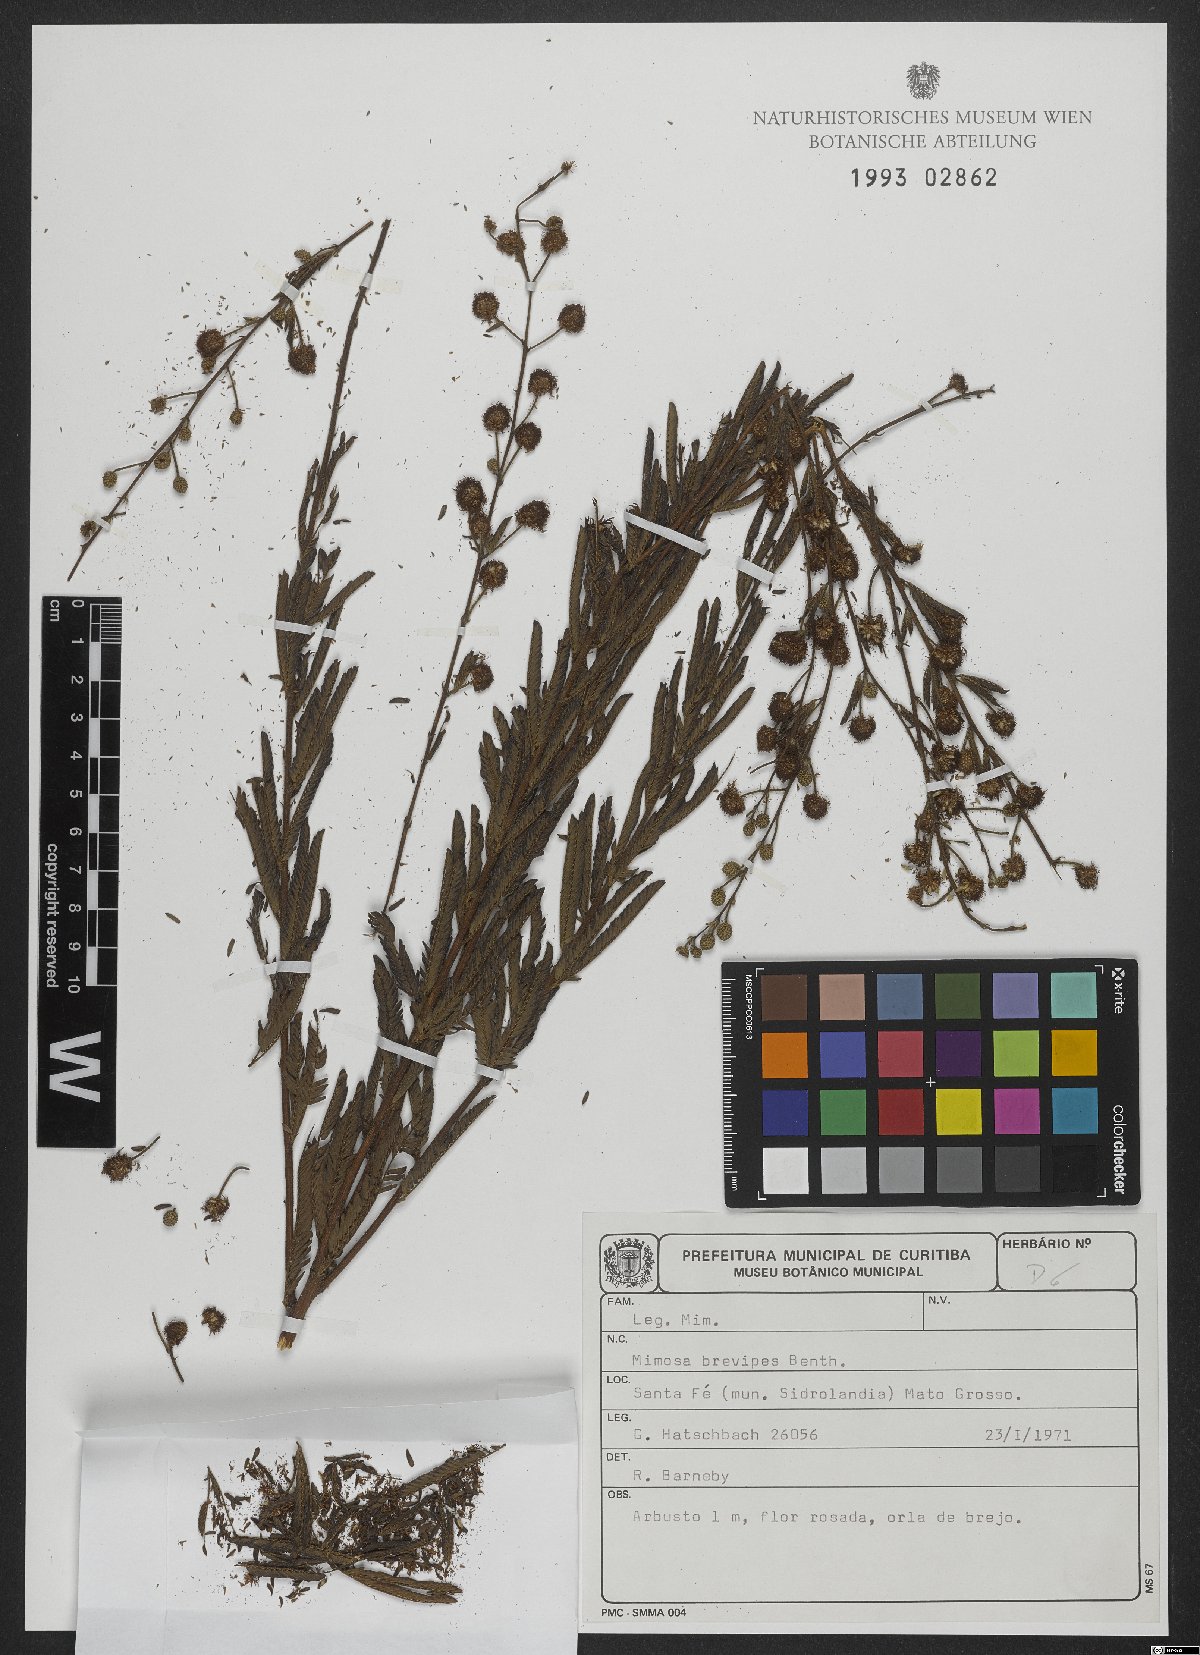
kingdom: Plantae
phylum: Tracheophyta
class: Magnoliopsida
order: Fabales
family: Fabaceae
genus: Mimosa
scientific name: Mimosa brevipes
